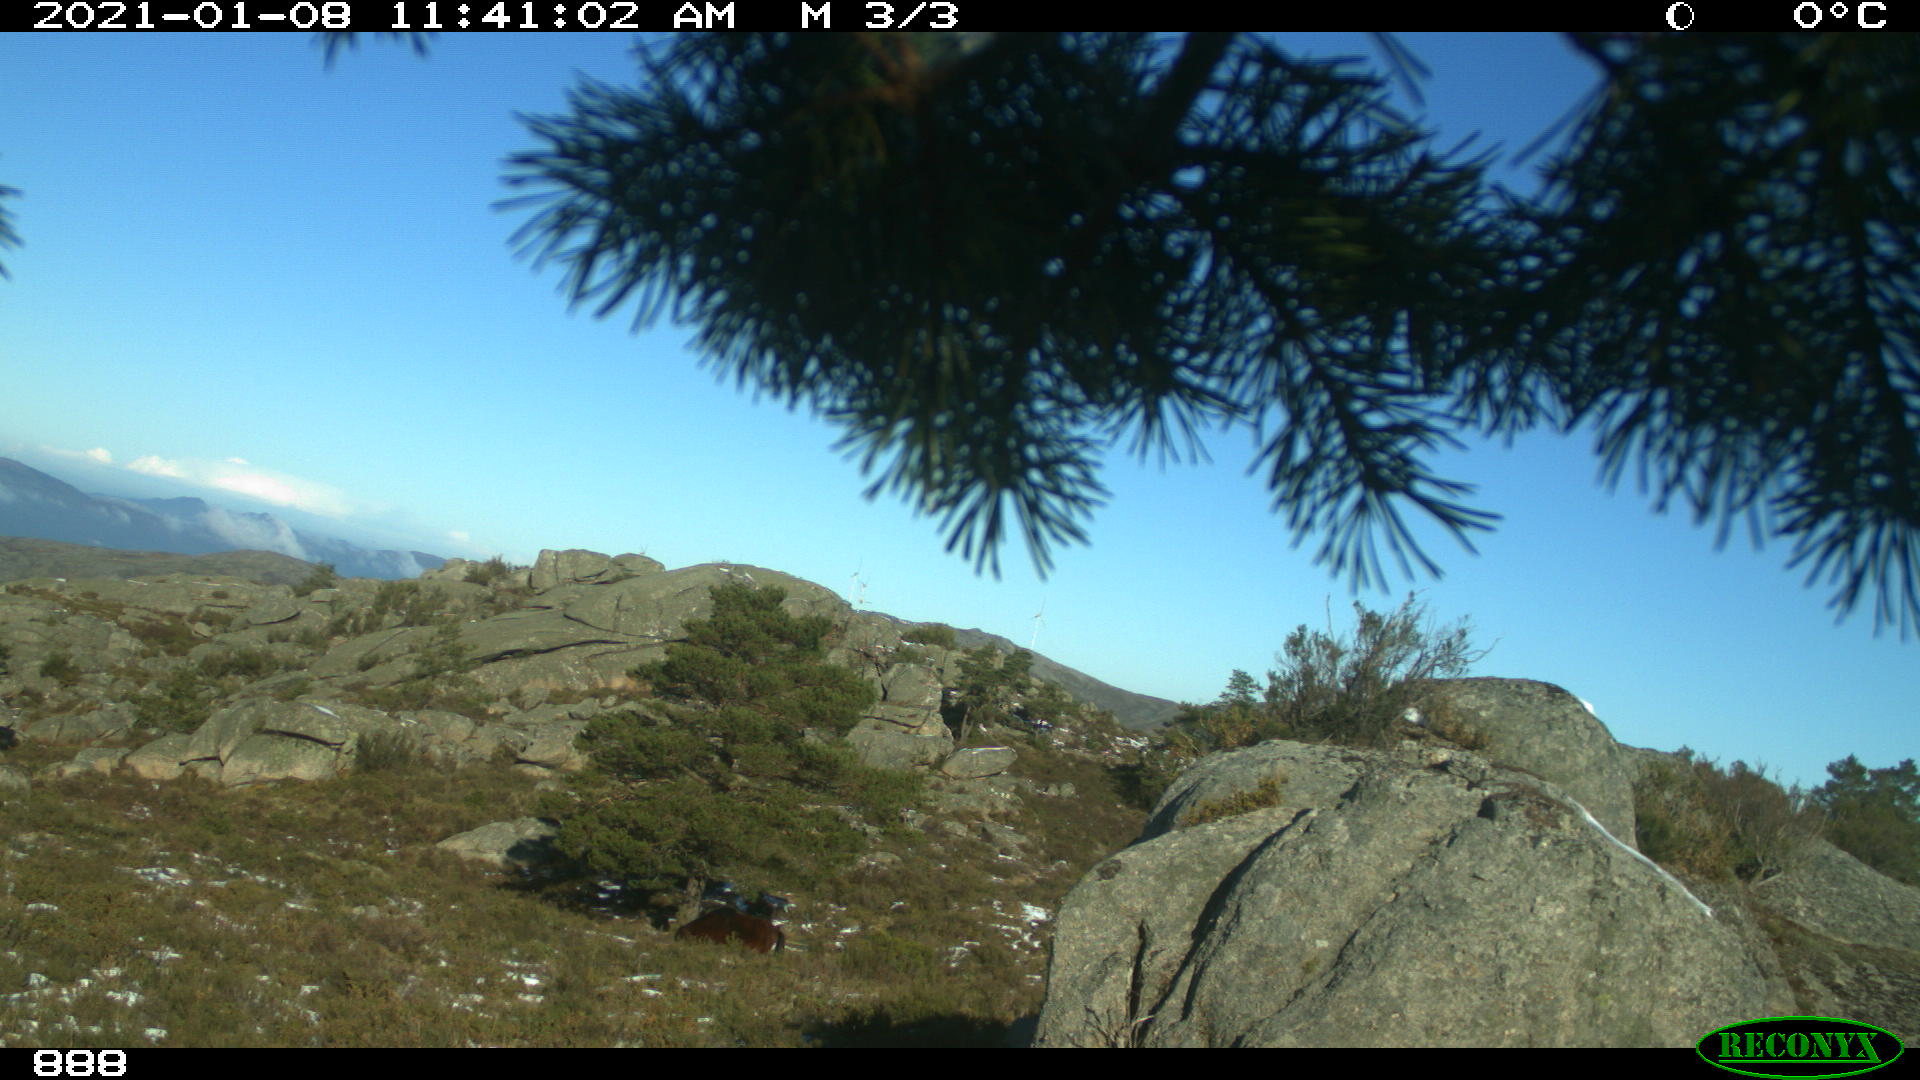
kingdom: Animalia
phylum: Chordata
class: Mammalia
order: Perissodactyla
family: Equidae
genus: Equus
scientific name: Equus caballus
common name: Horse
